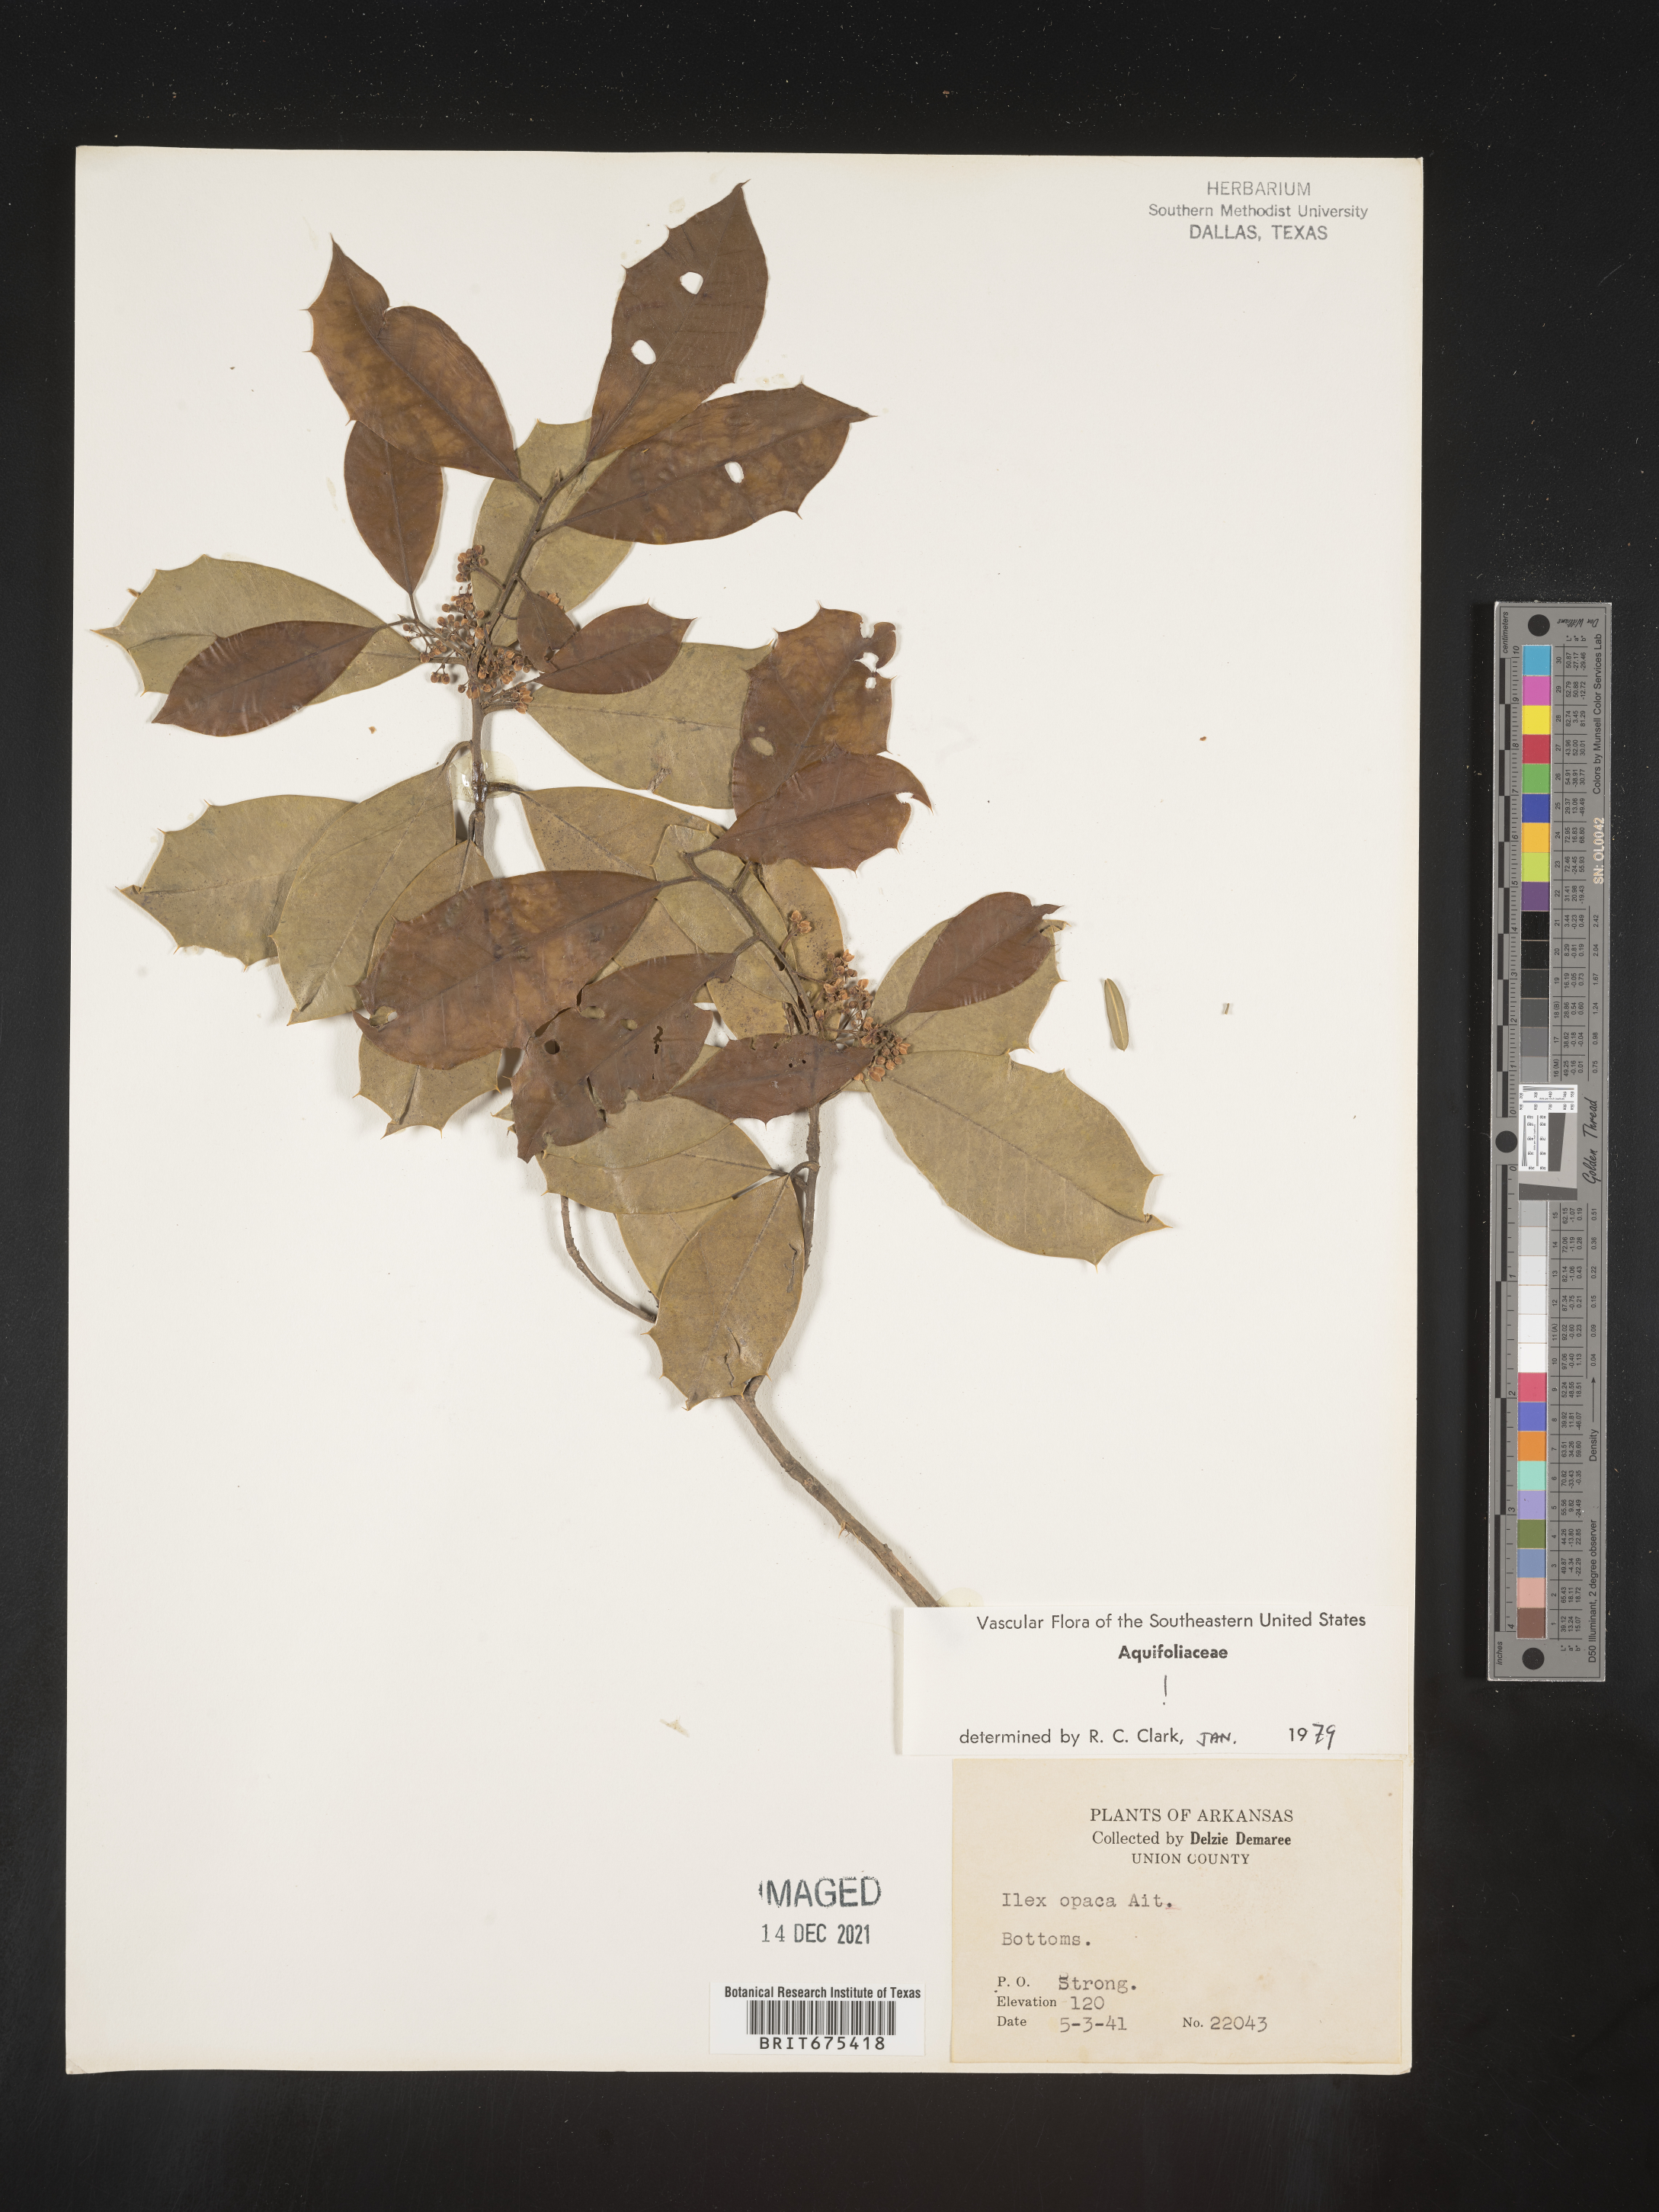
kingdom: Plantae
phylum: Tracheophyta
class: Magnoliopsida
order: Aquifoliales
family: Aquifoliaceae
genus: Ilex
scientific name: Ilex opaca
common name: American holly
